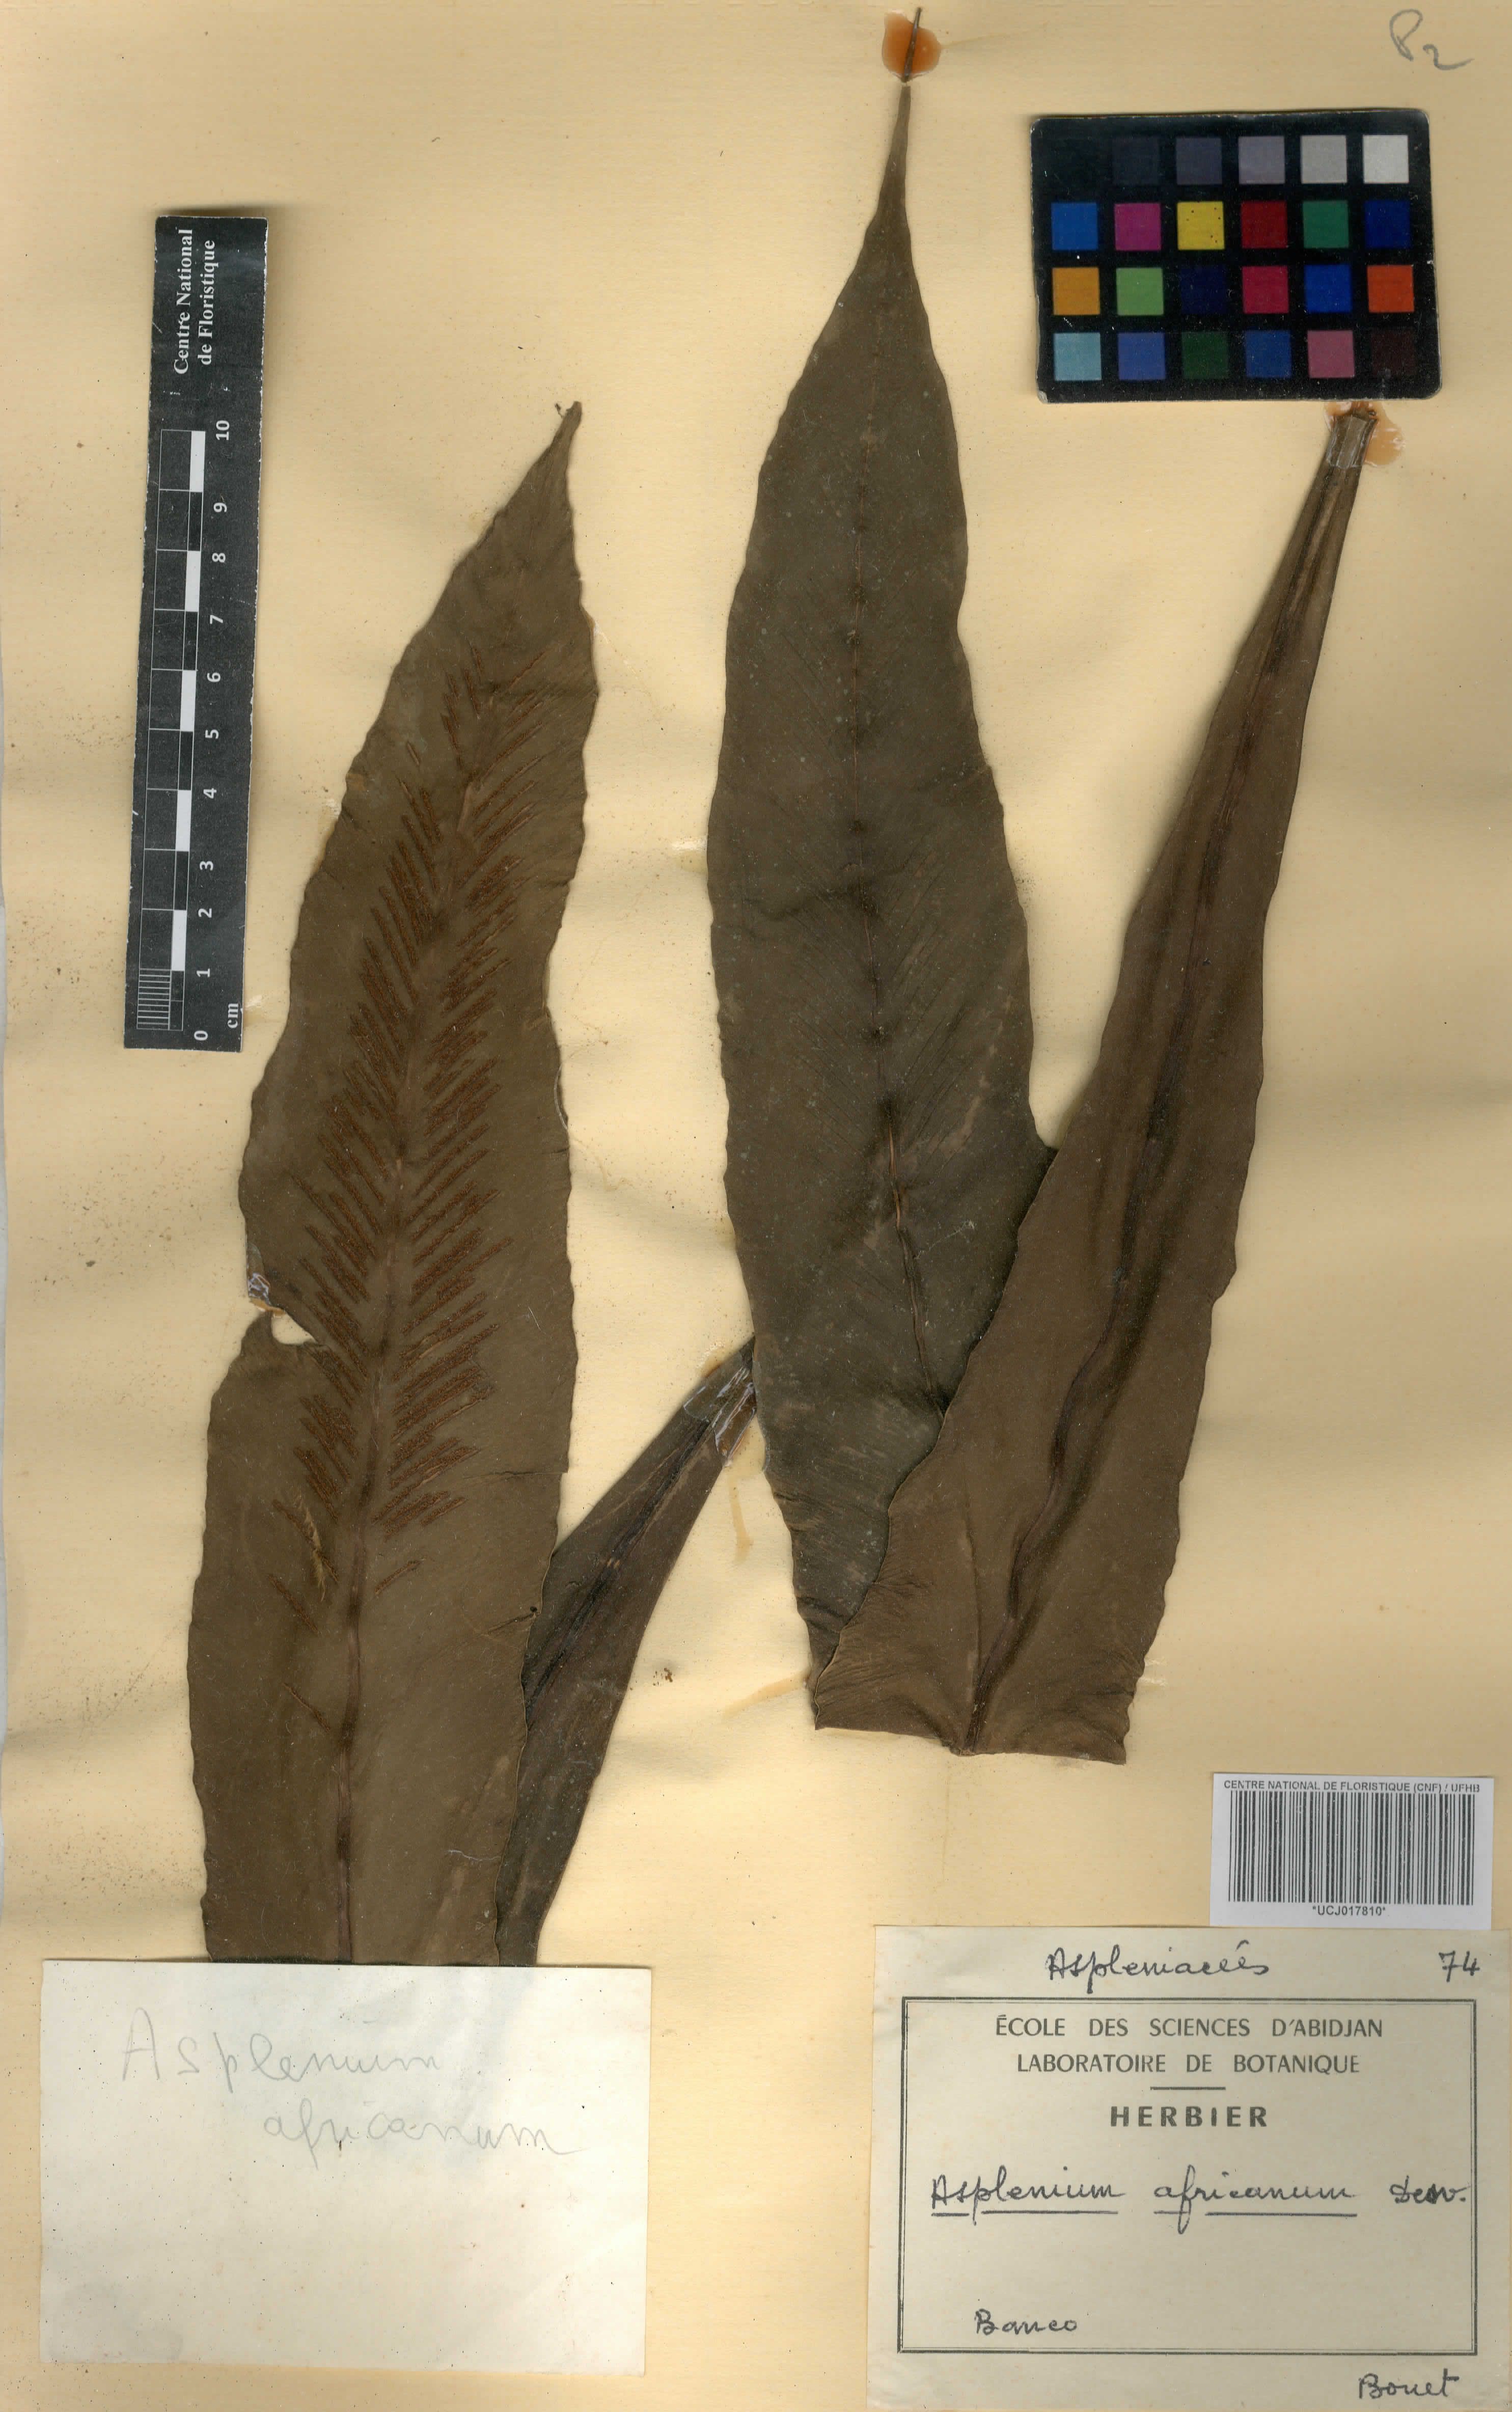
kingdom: Plantae
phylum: Tracheophyta
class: Polypodiopsida
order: Polypodiales
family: Aspleniaceae
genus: Asplenium
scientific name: Asplenium africanum
